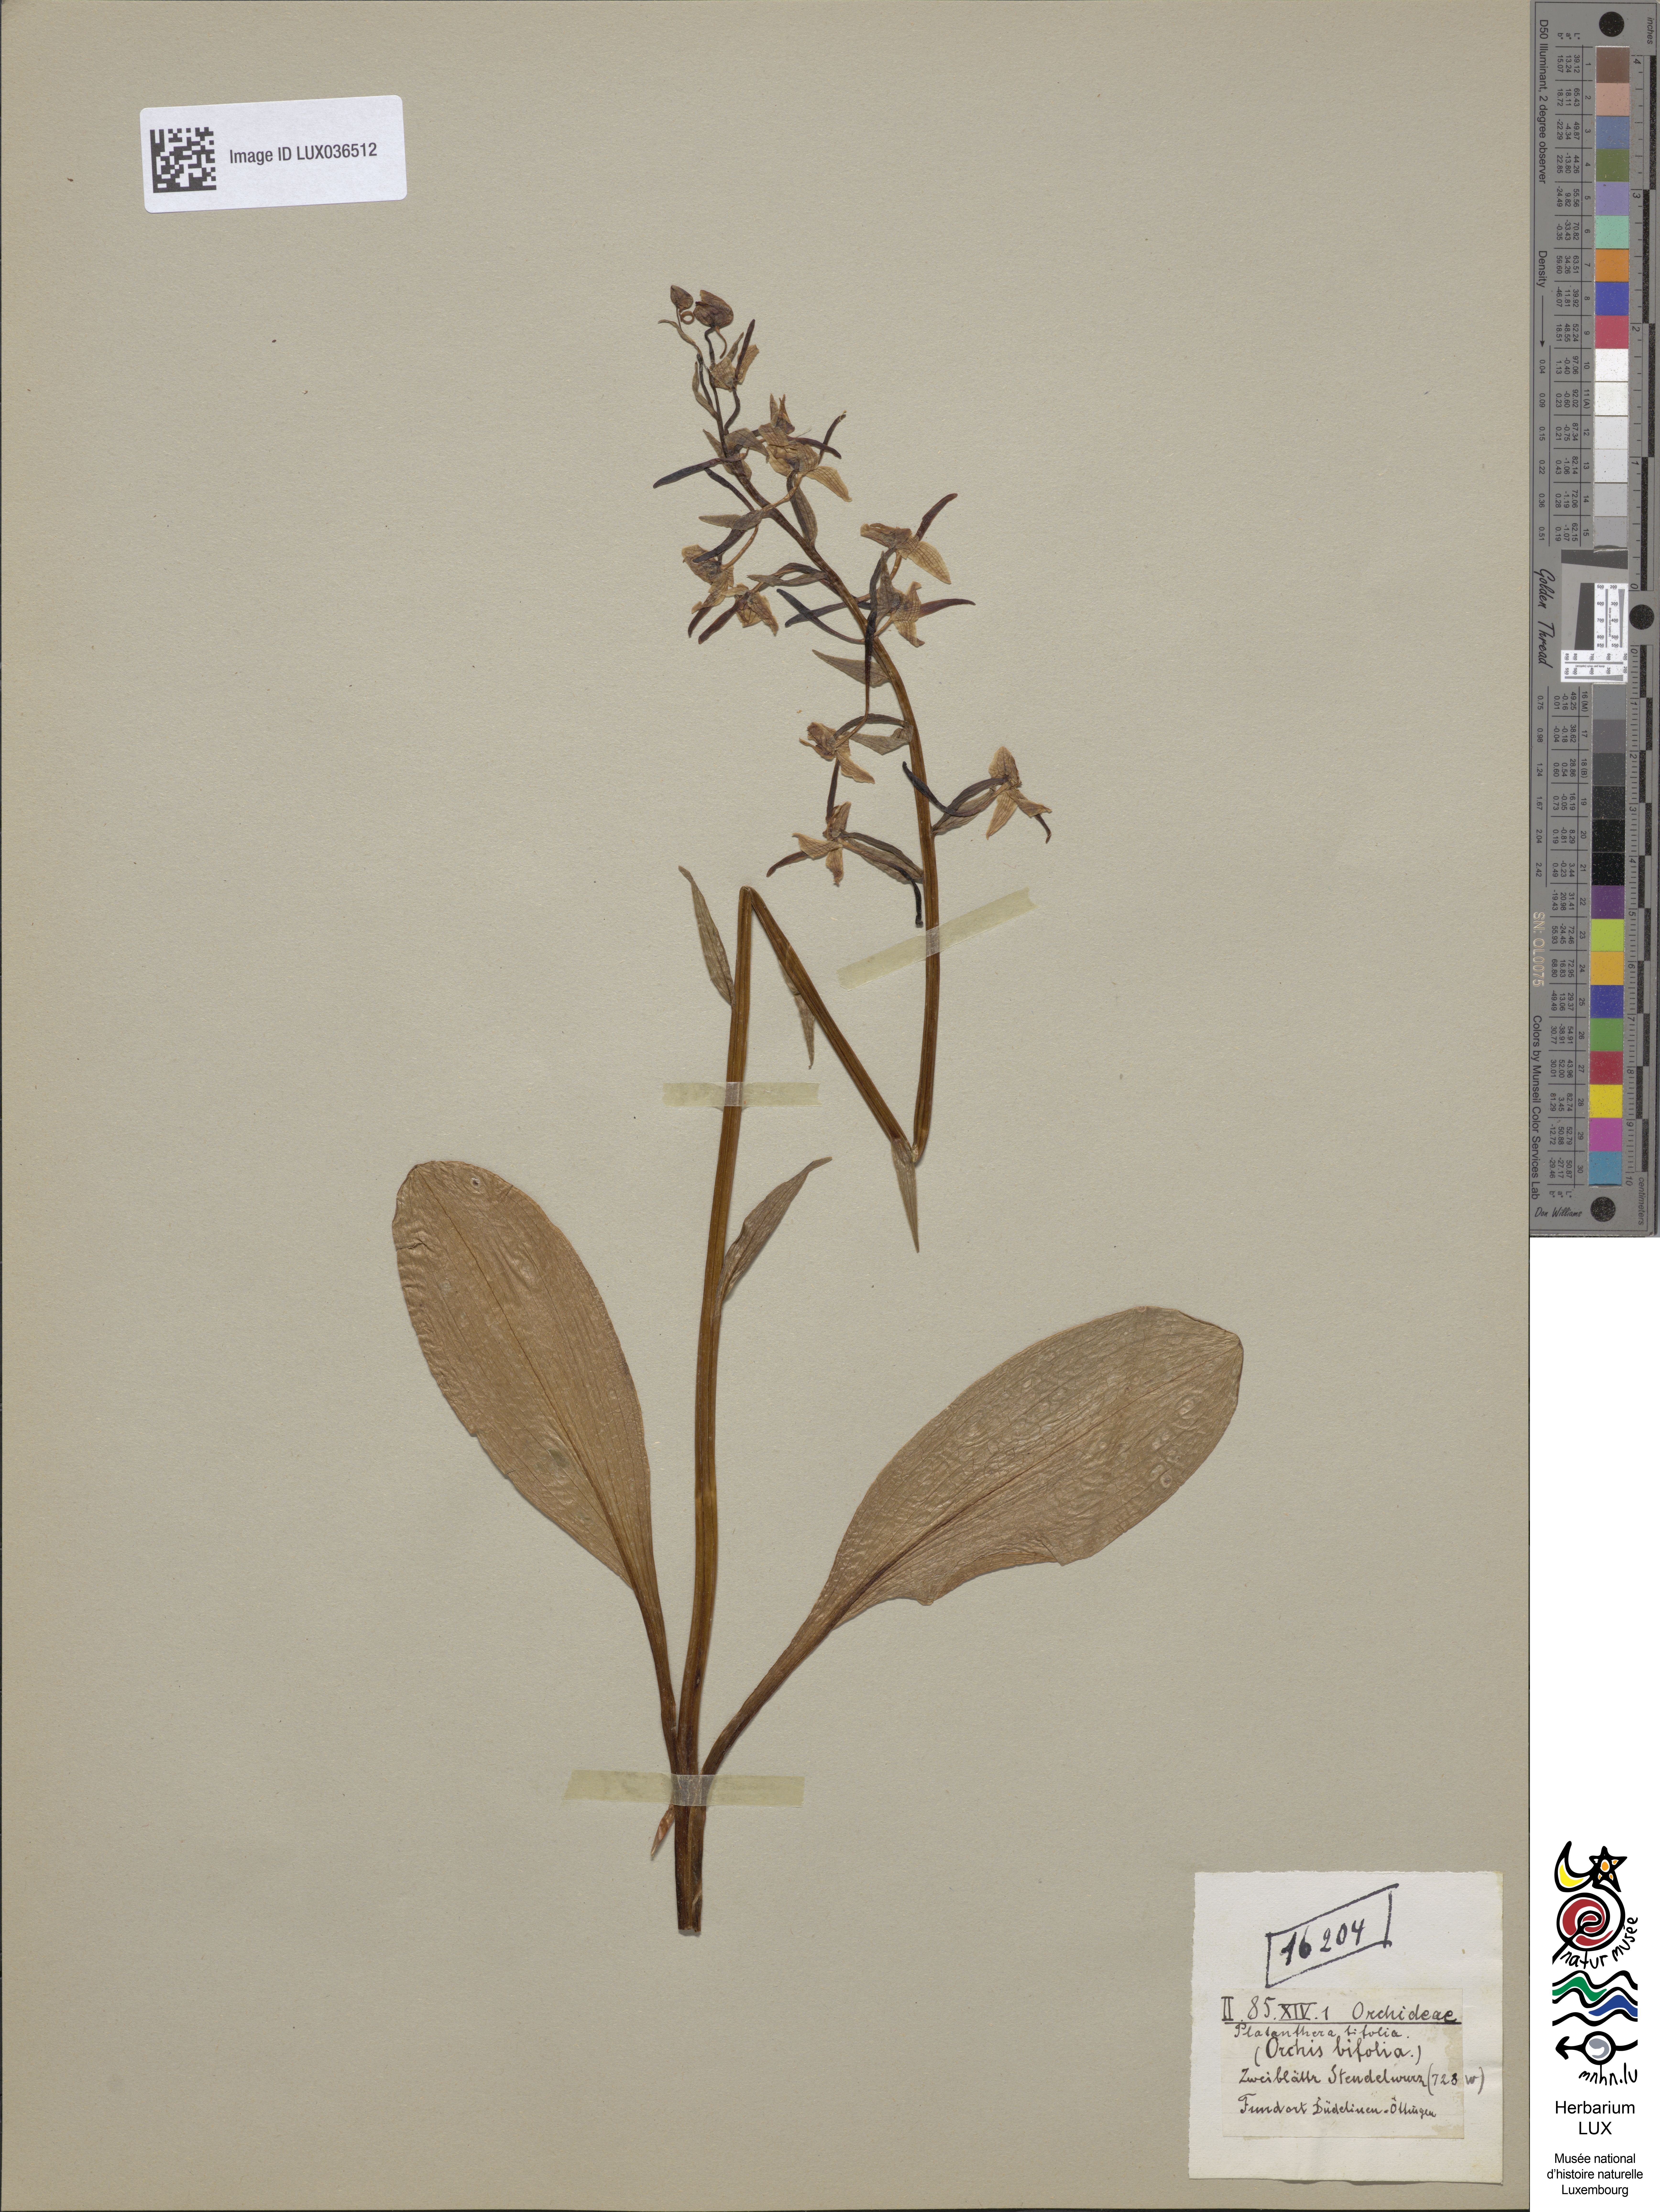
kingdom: Plantae
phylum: Tracheophyta
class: Liliopsida
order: Asparagales
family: Orchidaceae
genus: Platanthera
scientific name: Platanthera bifolia
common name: Lesser butterfly-orchid
